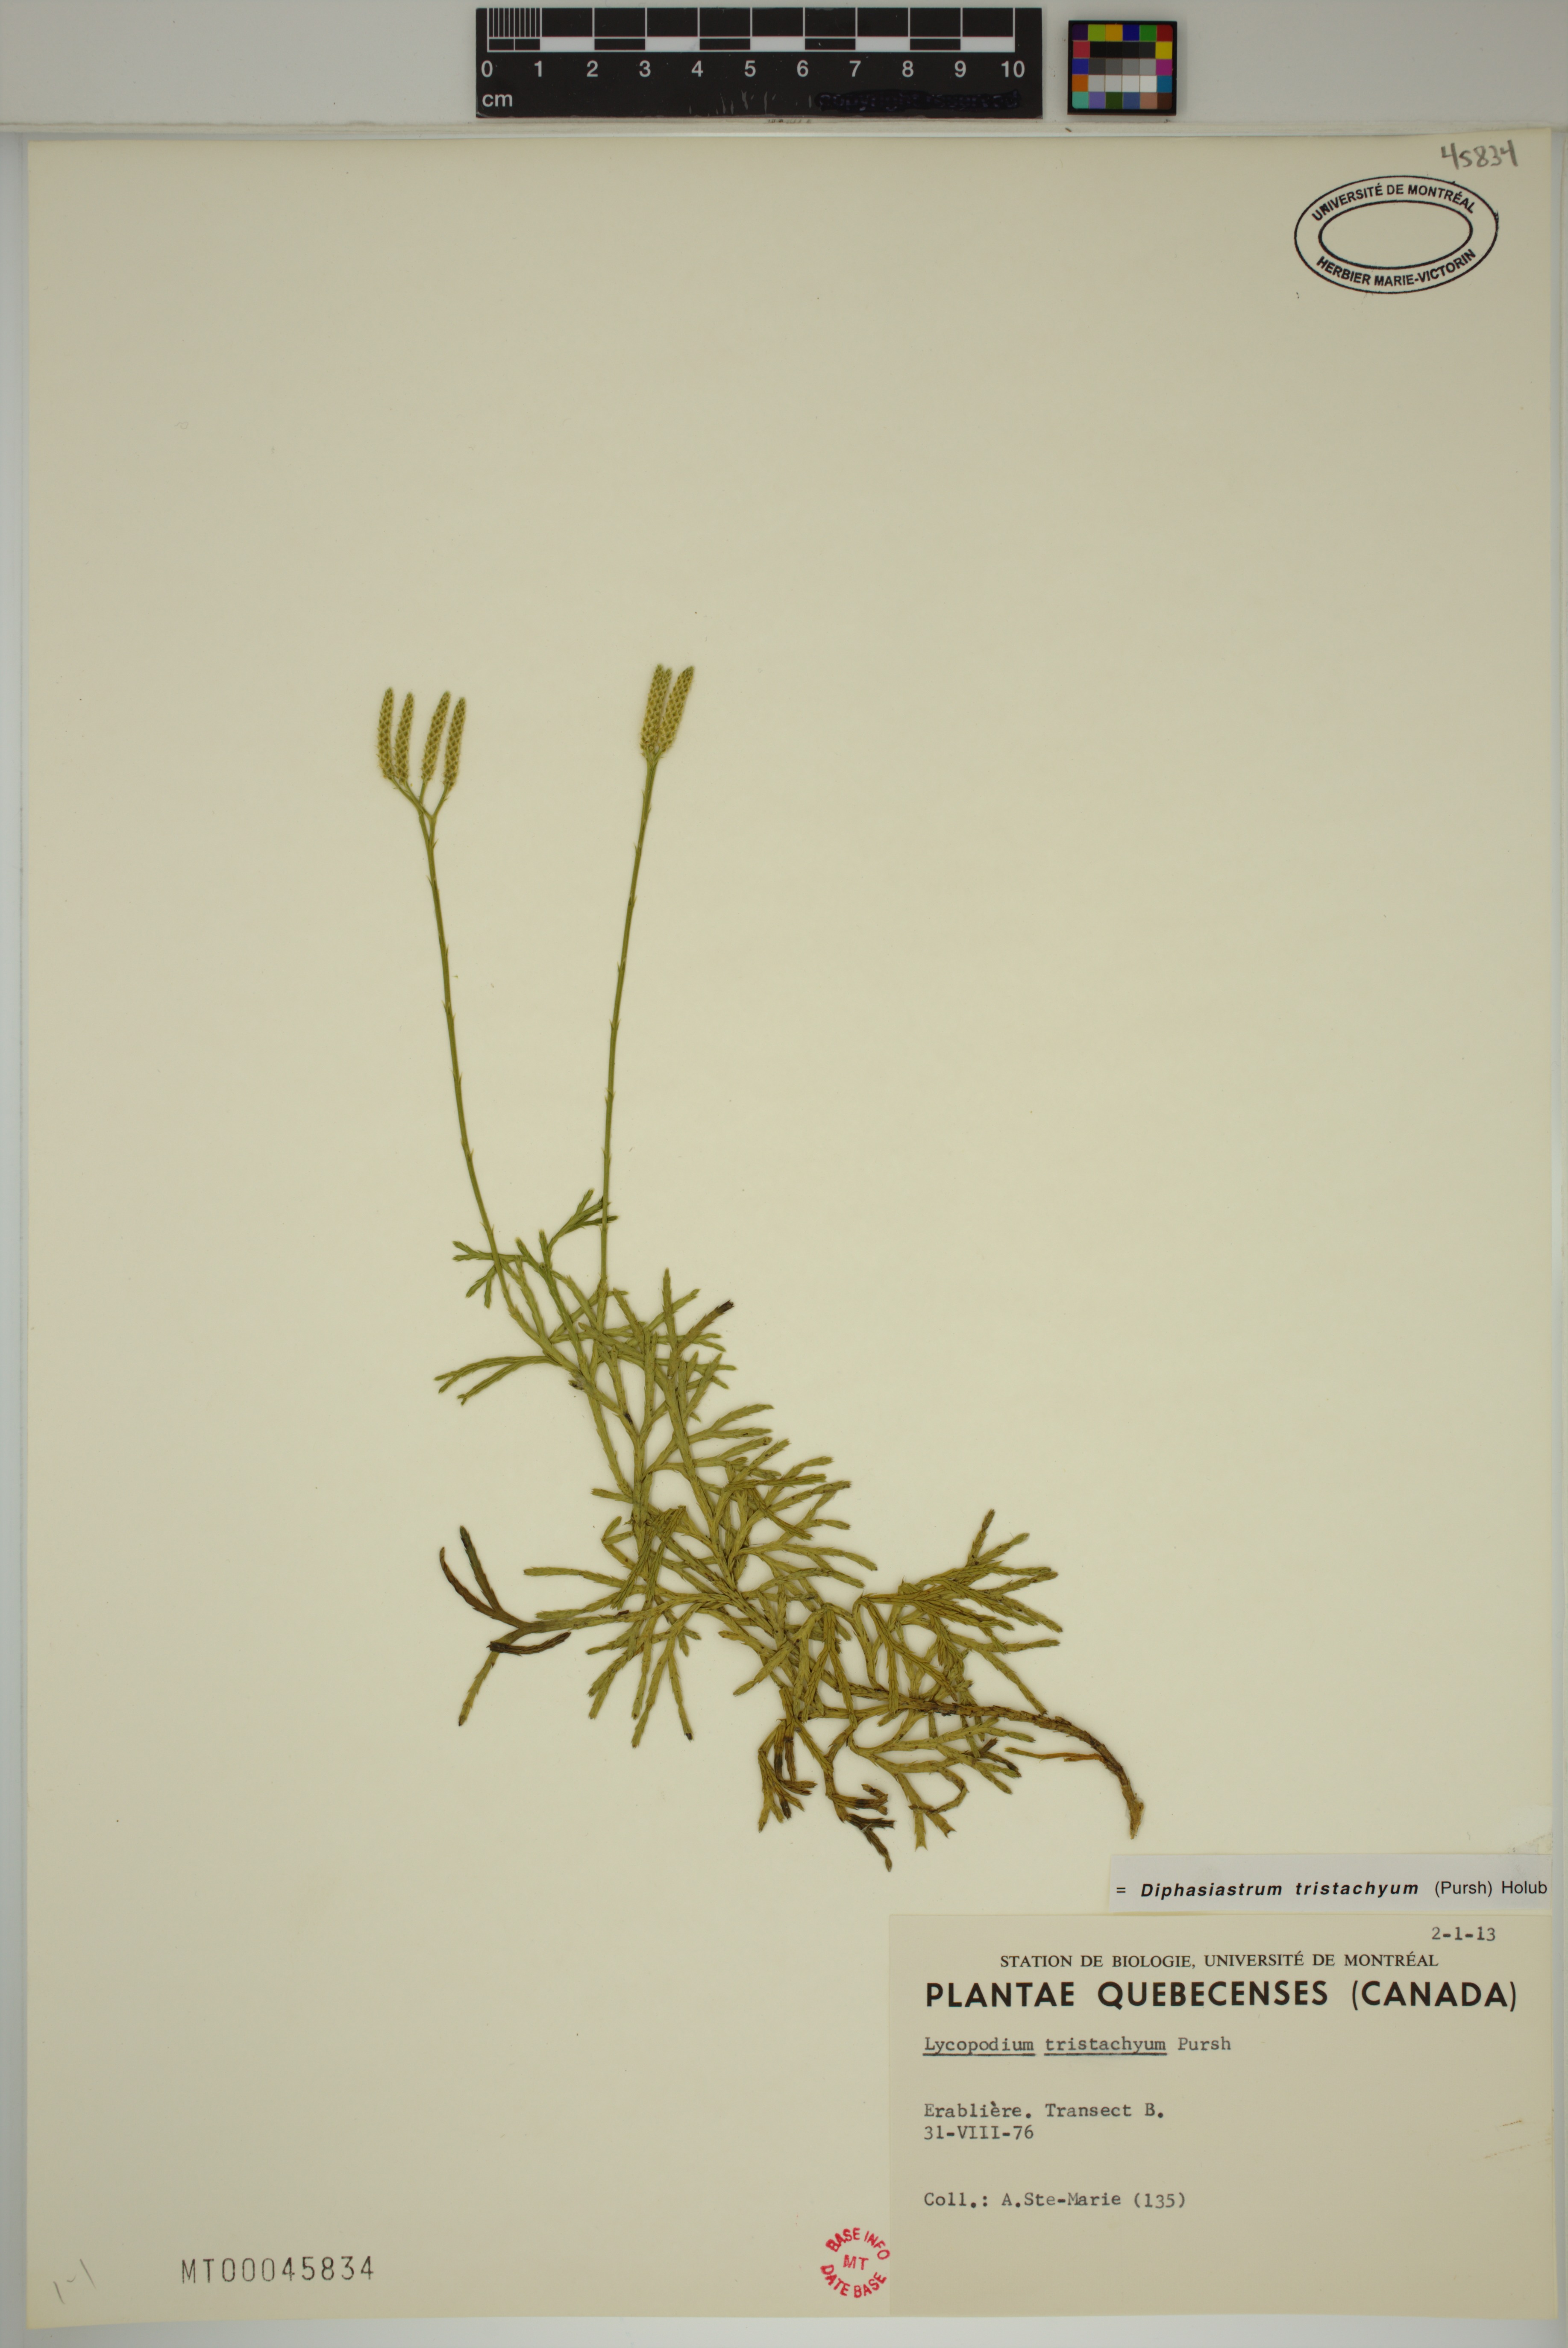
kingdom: Plantae
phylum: Tracheophyta
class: Lycopodiopsida
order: Lycopodiales
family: Lycopodiaceae
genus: Diphasiastrum
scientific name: Diphasiastrum tristachyum
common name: Blue ground-cedar
